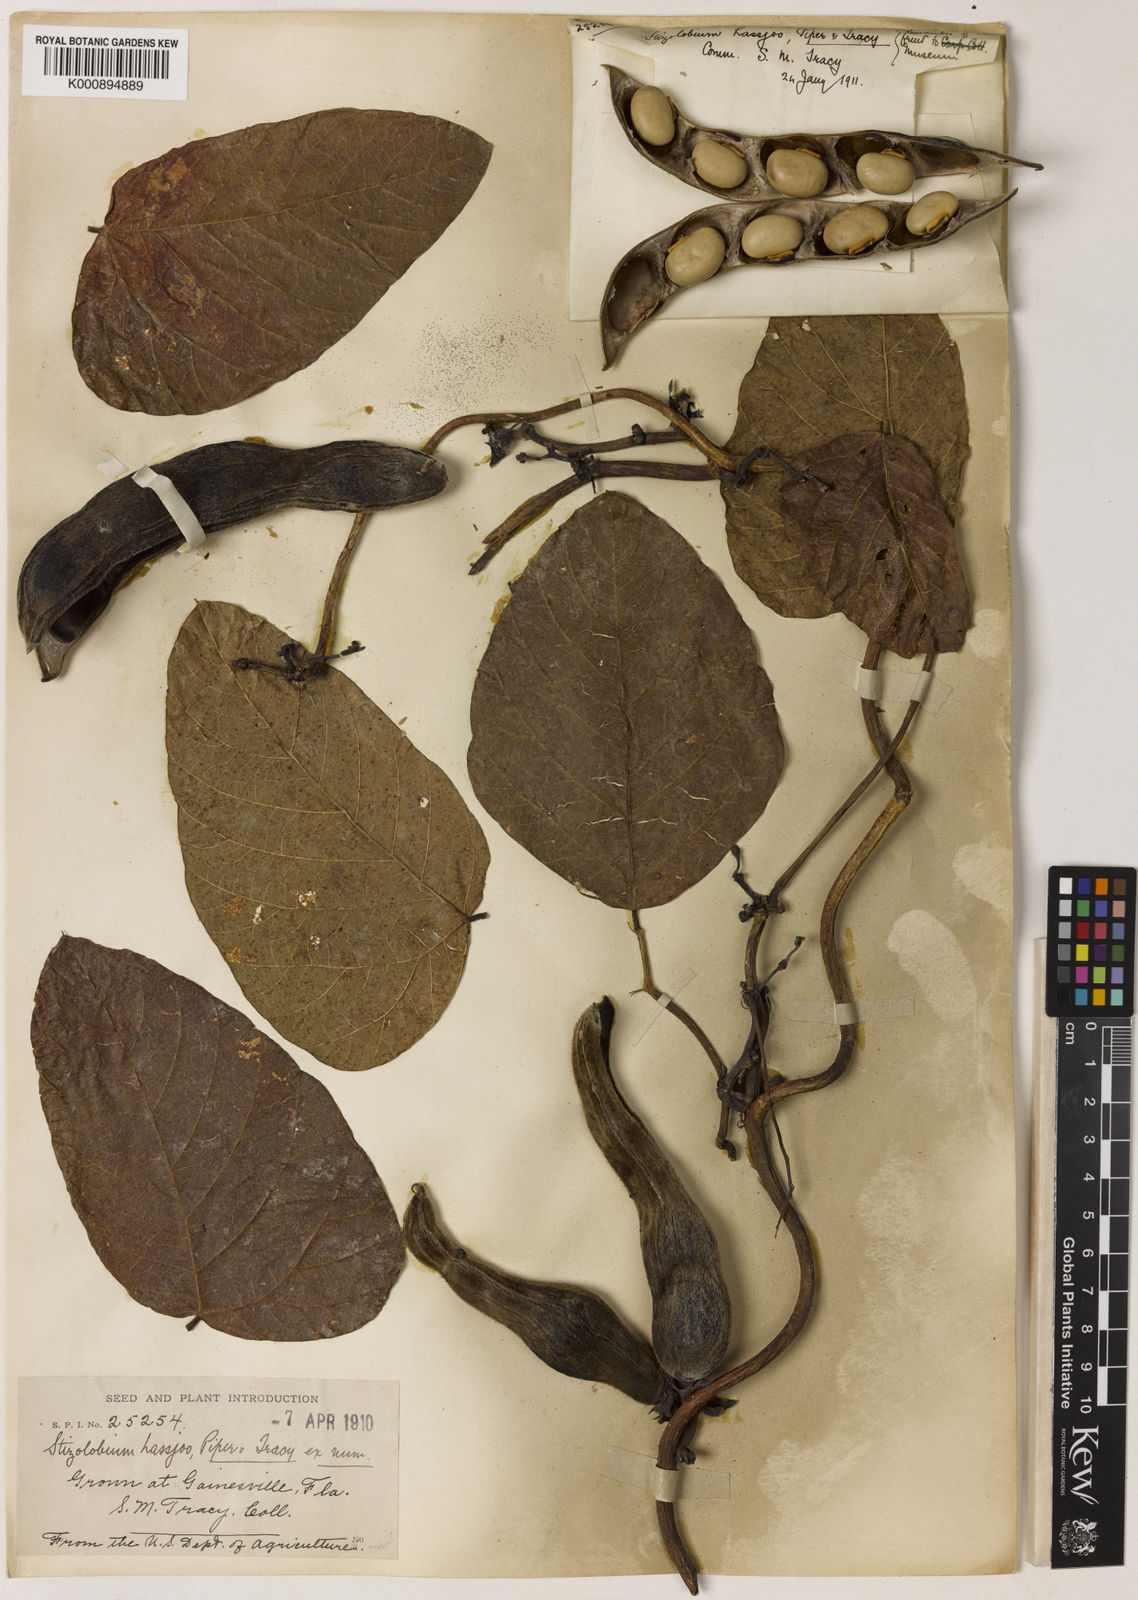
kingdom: Plantae
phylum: Tracheophyta
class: Magnoliopsida
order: Fabales
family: Fabaceae
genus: Mucuna
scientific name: Mucuna pruriens
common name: Cow-itch
